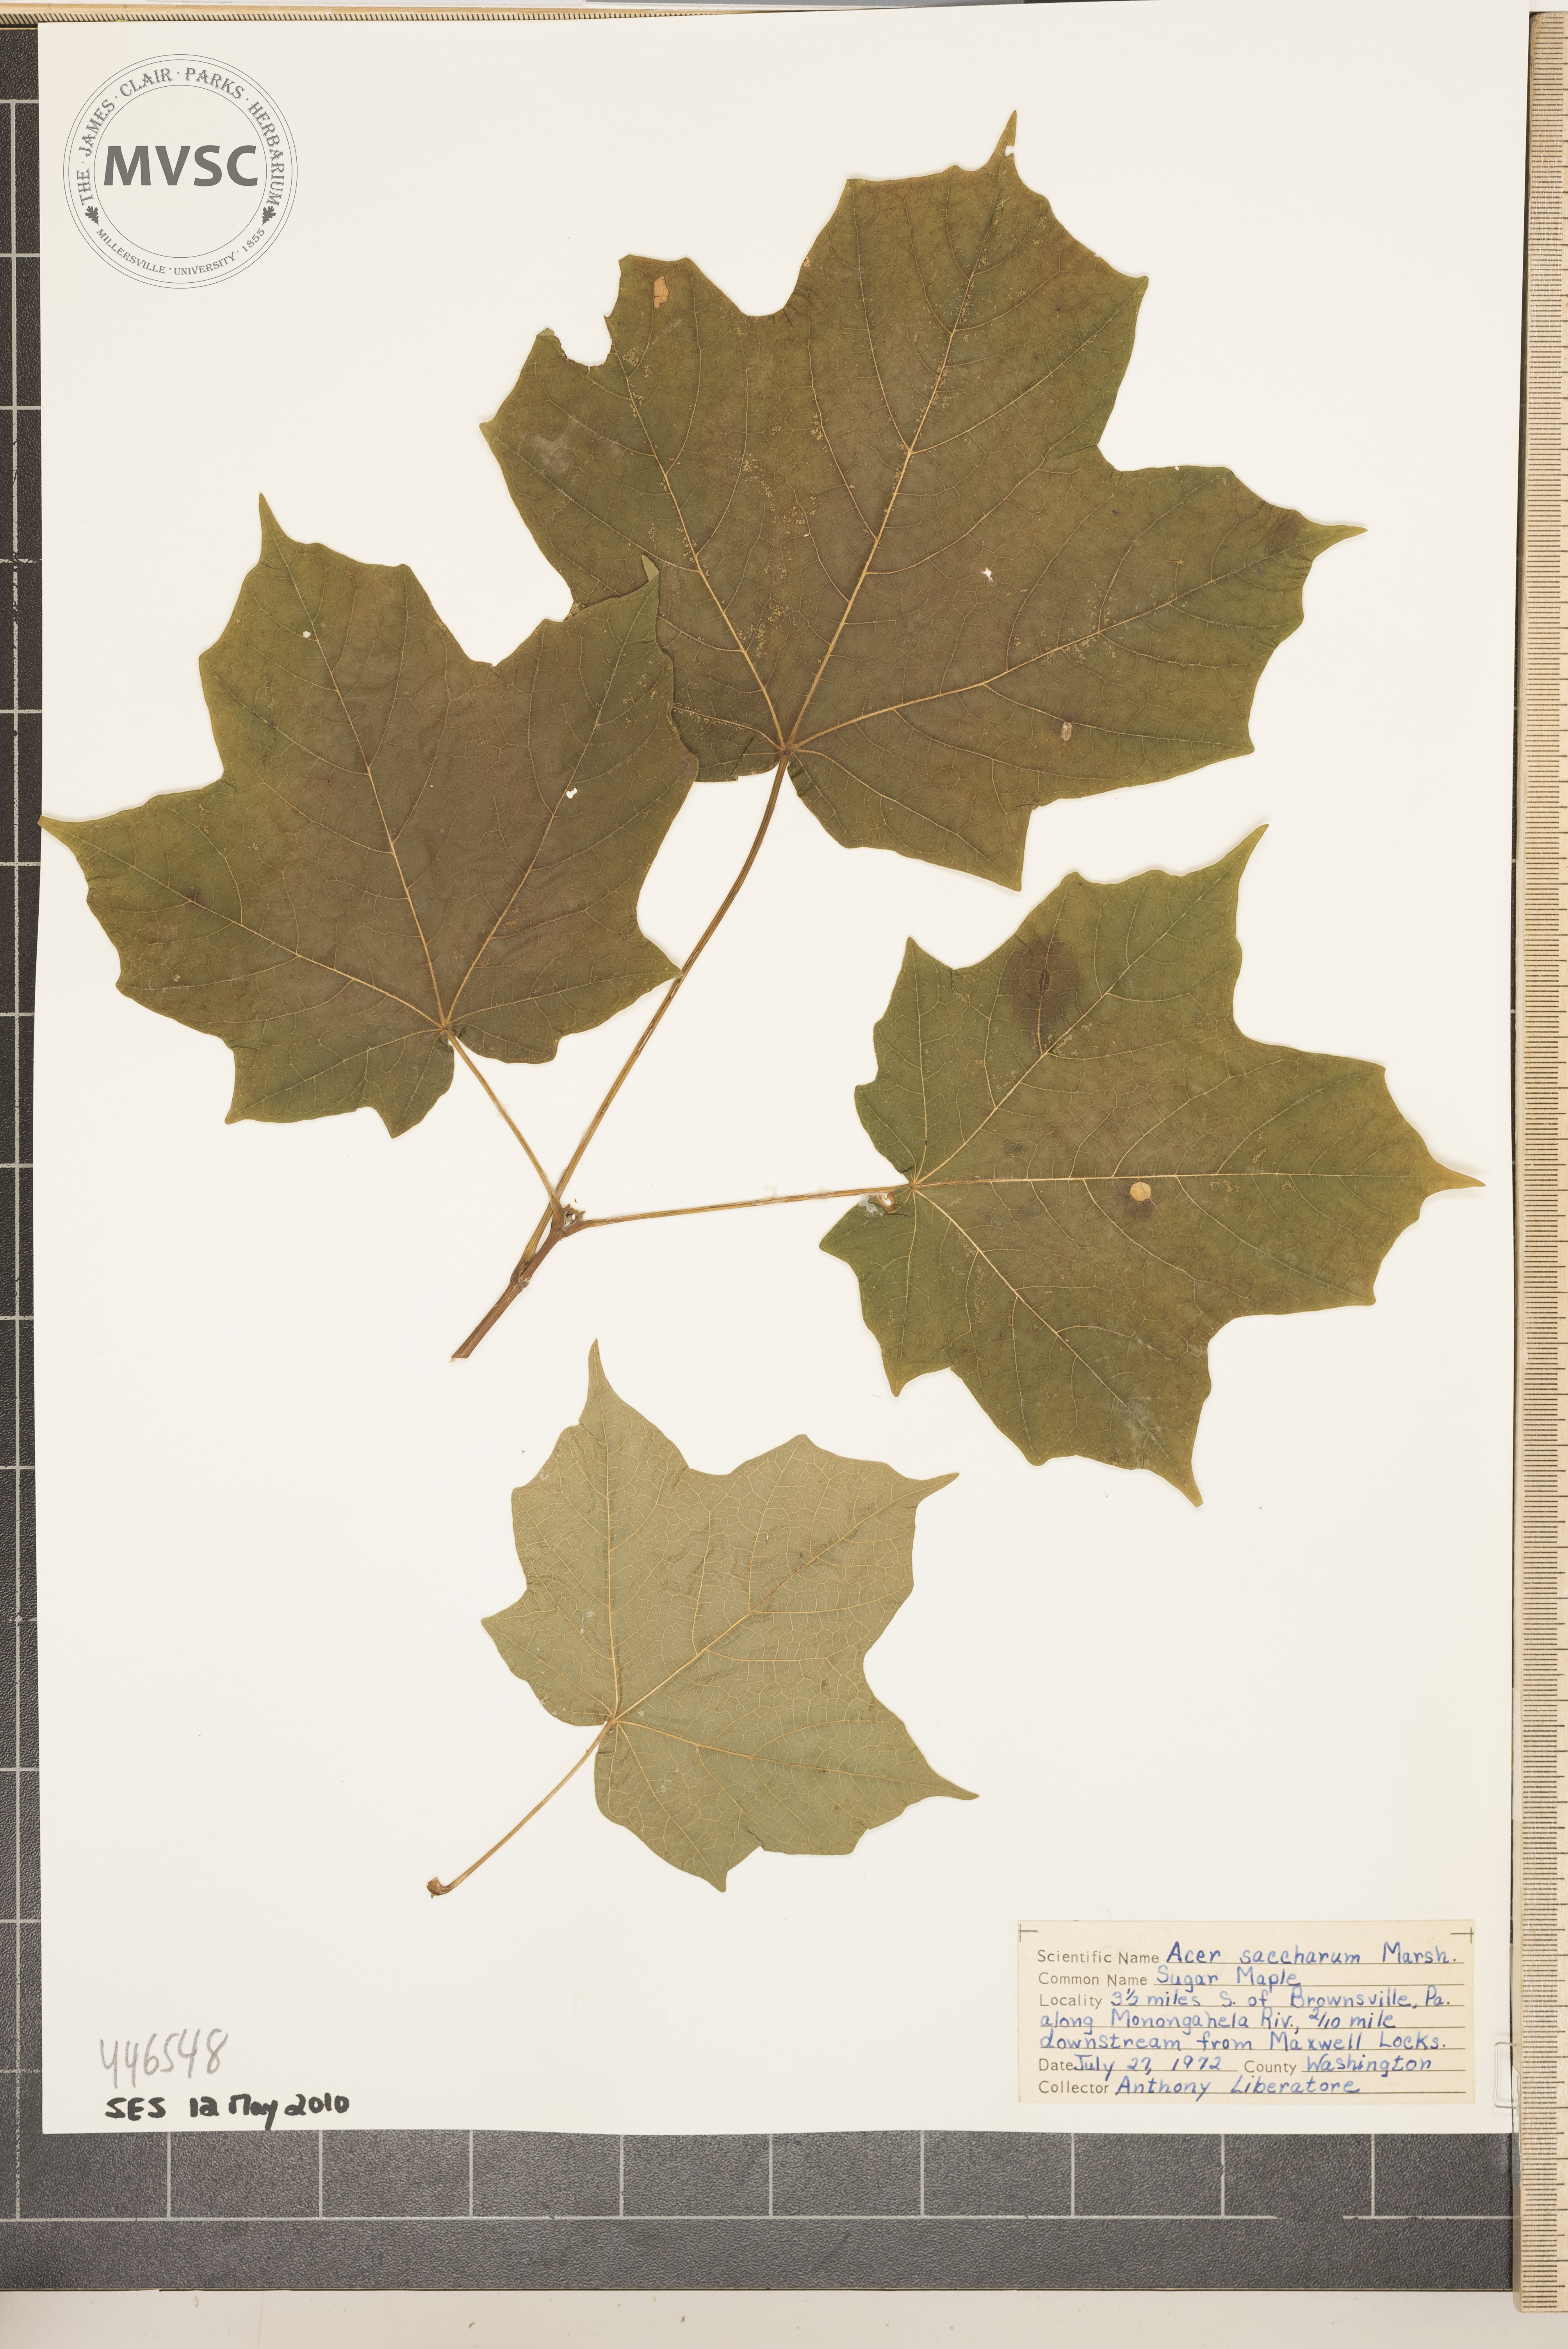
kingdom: Plantae
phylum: Tracheophyta
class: Magnoliopsida
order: Sapindales
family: Sapindaceae
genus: Acer
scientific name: Acer saccharum
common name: Sugar maple
